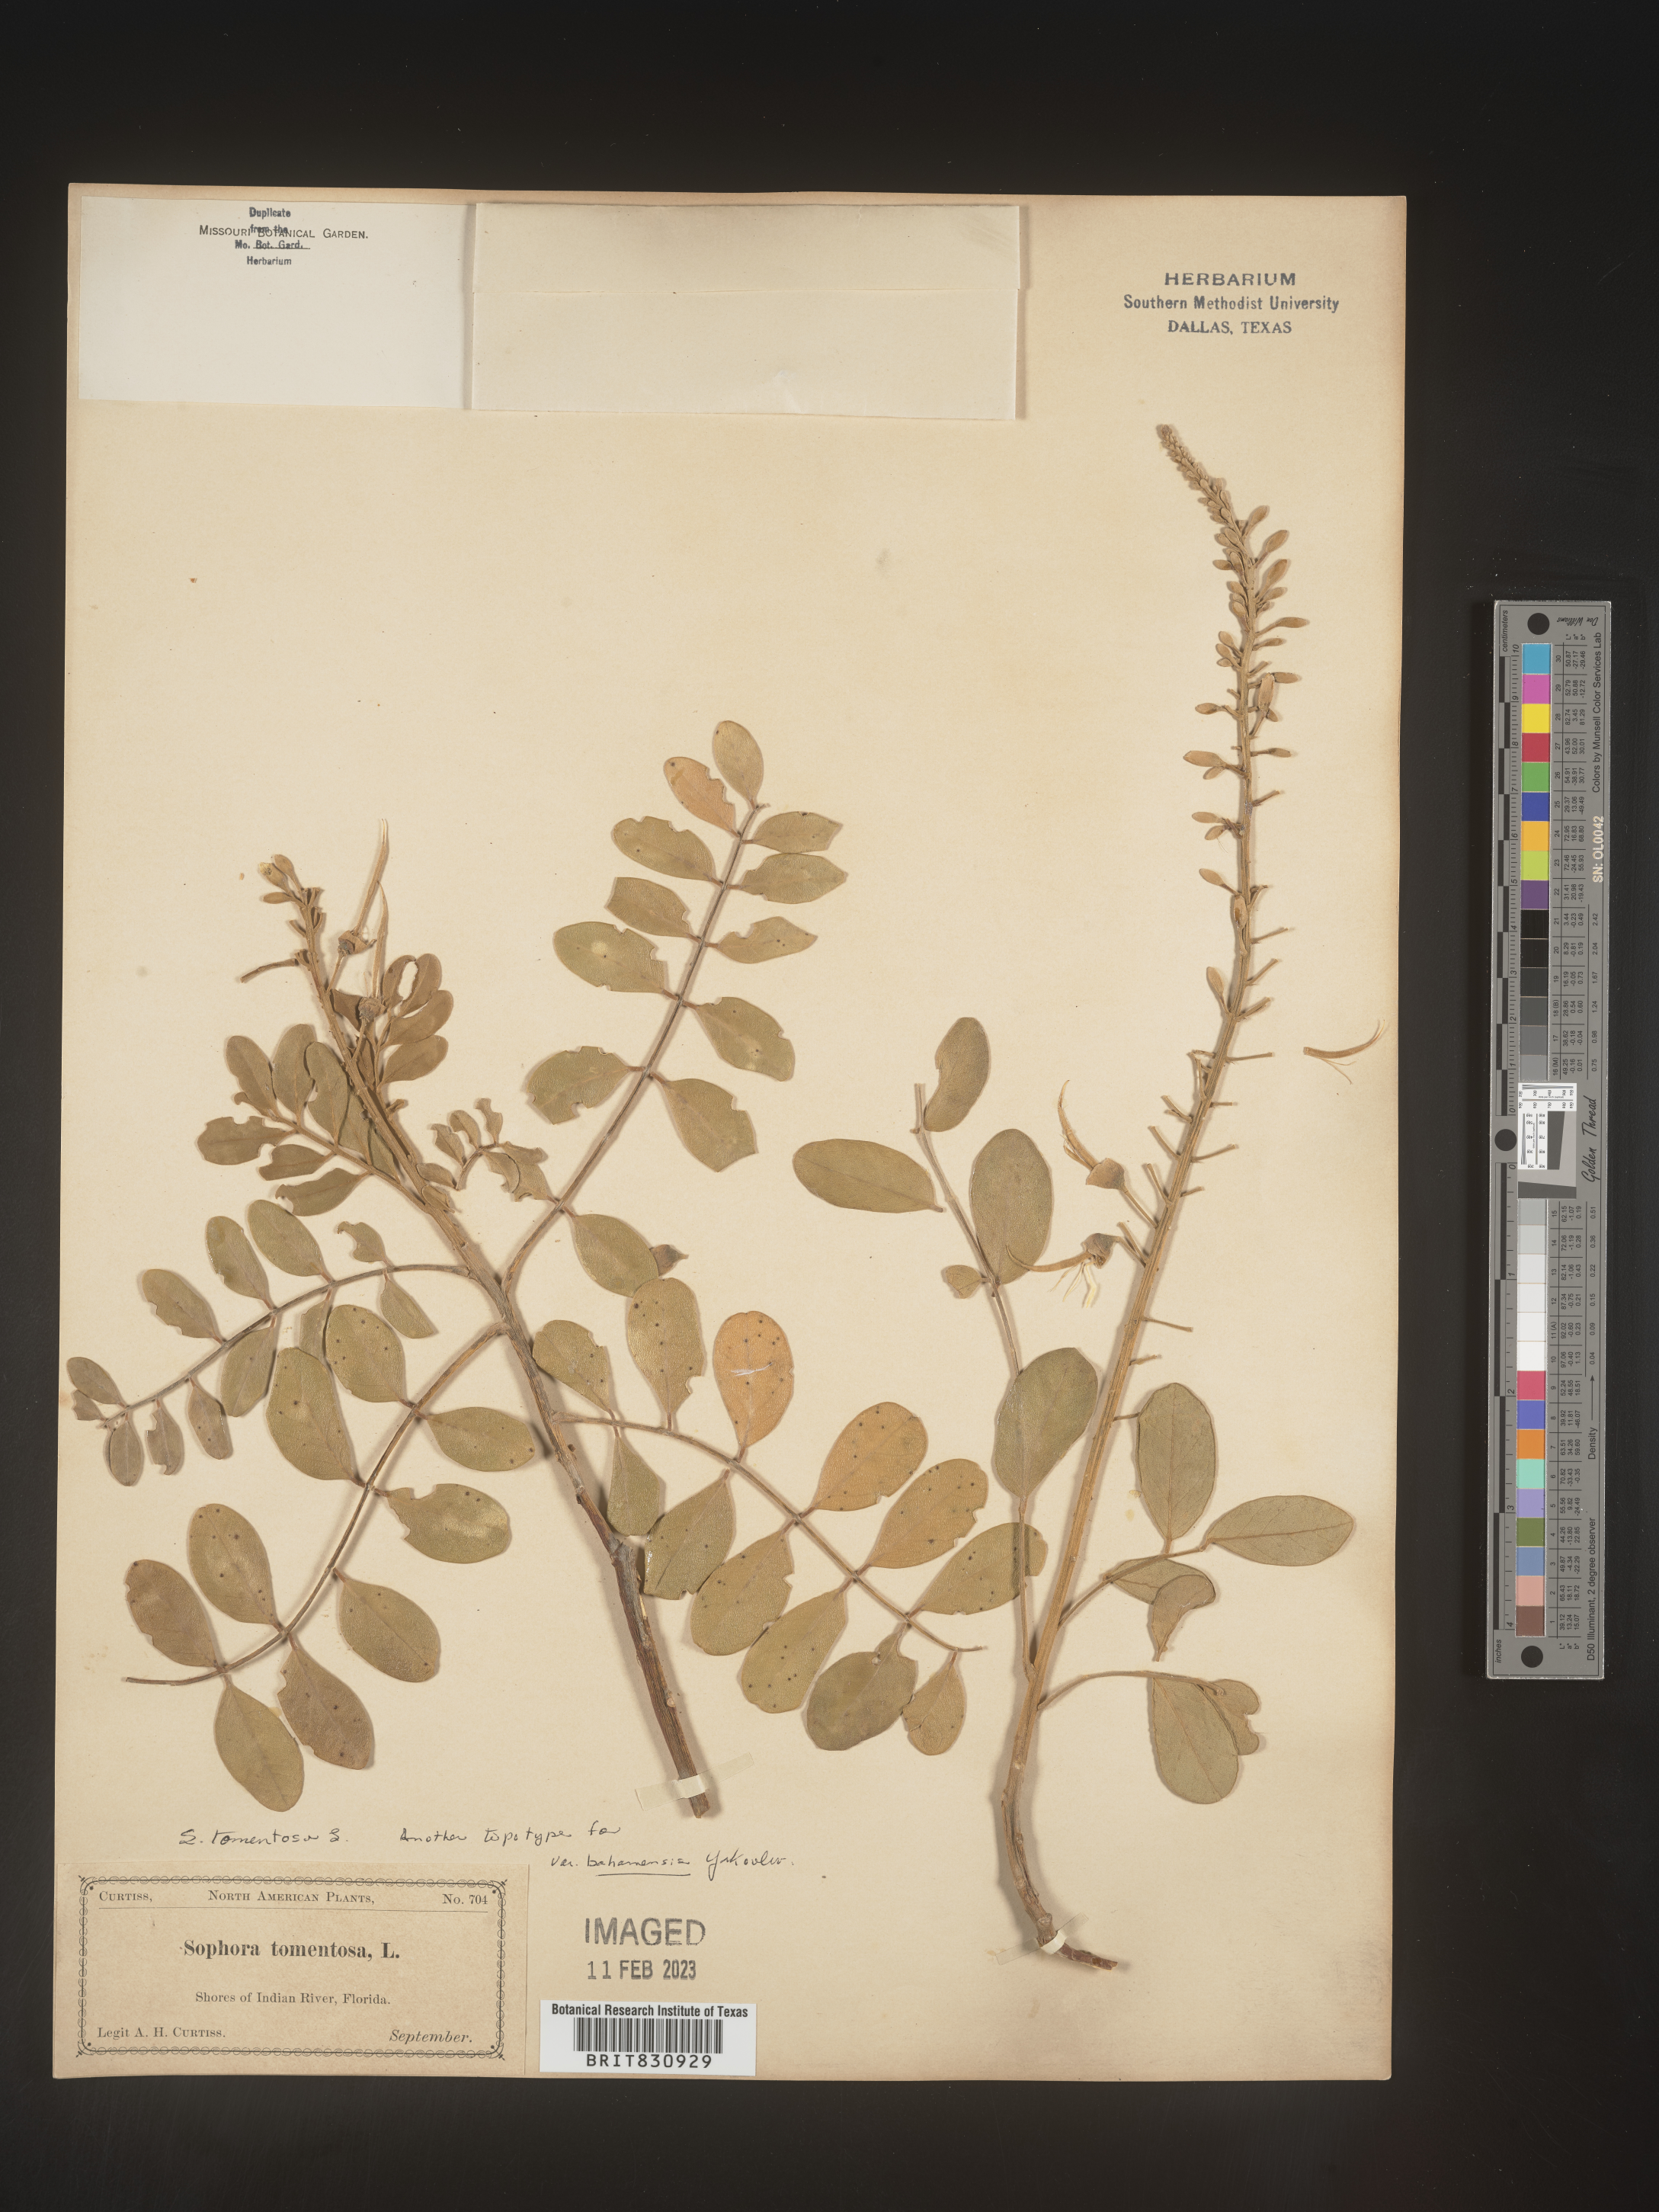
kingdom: Plantae
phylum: Tracheophyta
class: Magnoliopsida
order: Fabales
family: Fabaceae
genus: Sophora
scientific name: Sophora
